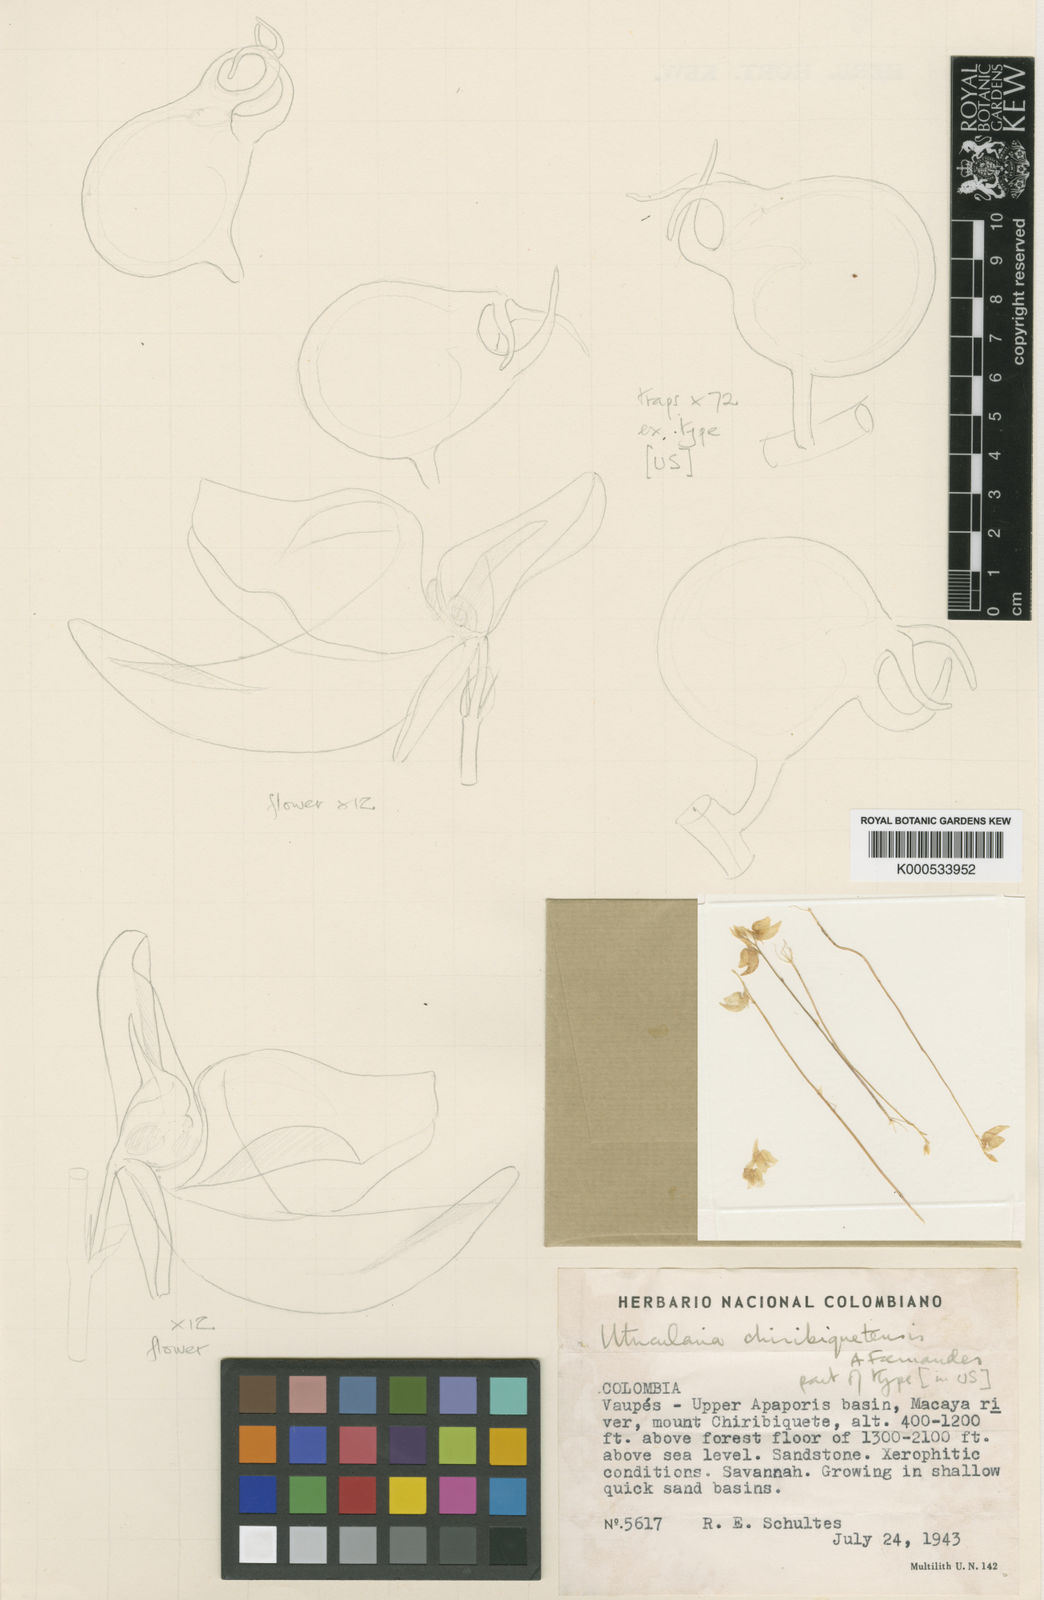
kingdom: Plantae
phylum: Tracheophyta
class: Magnoliopsida
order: Lamiales
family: Lentibulariaceae
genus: Utricularia
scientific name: Utricularia
